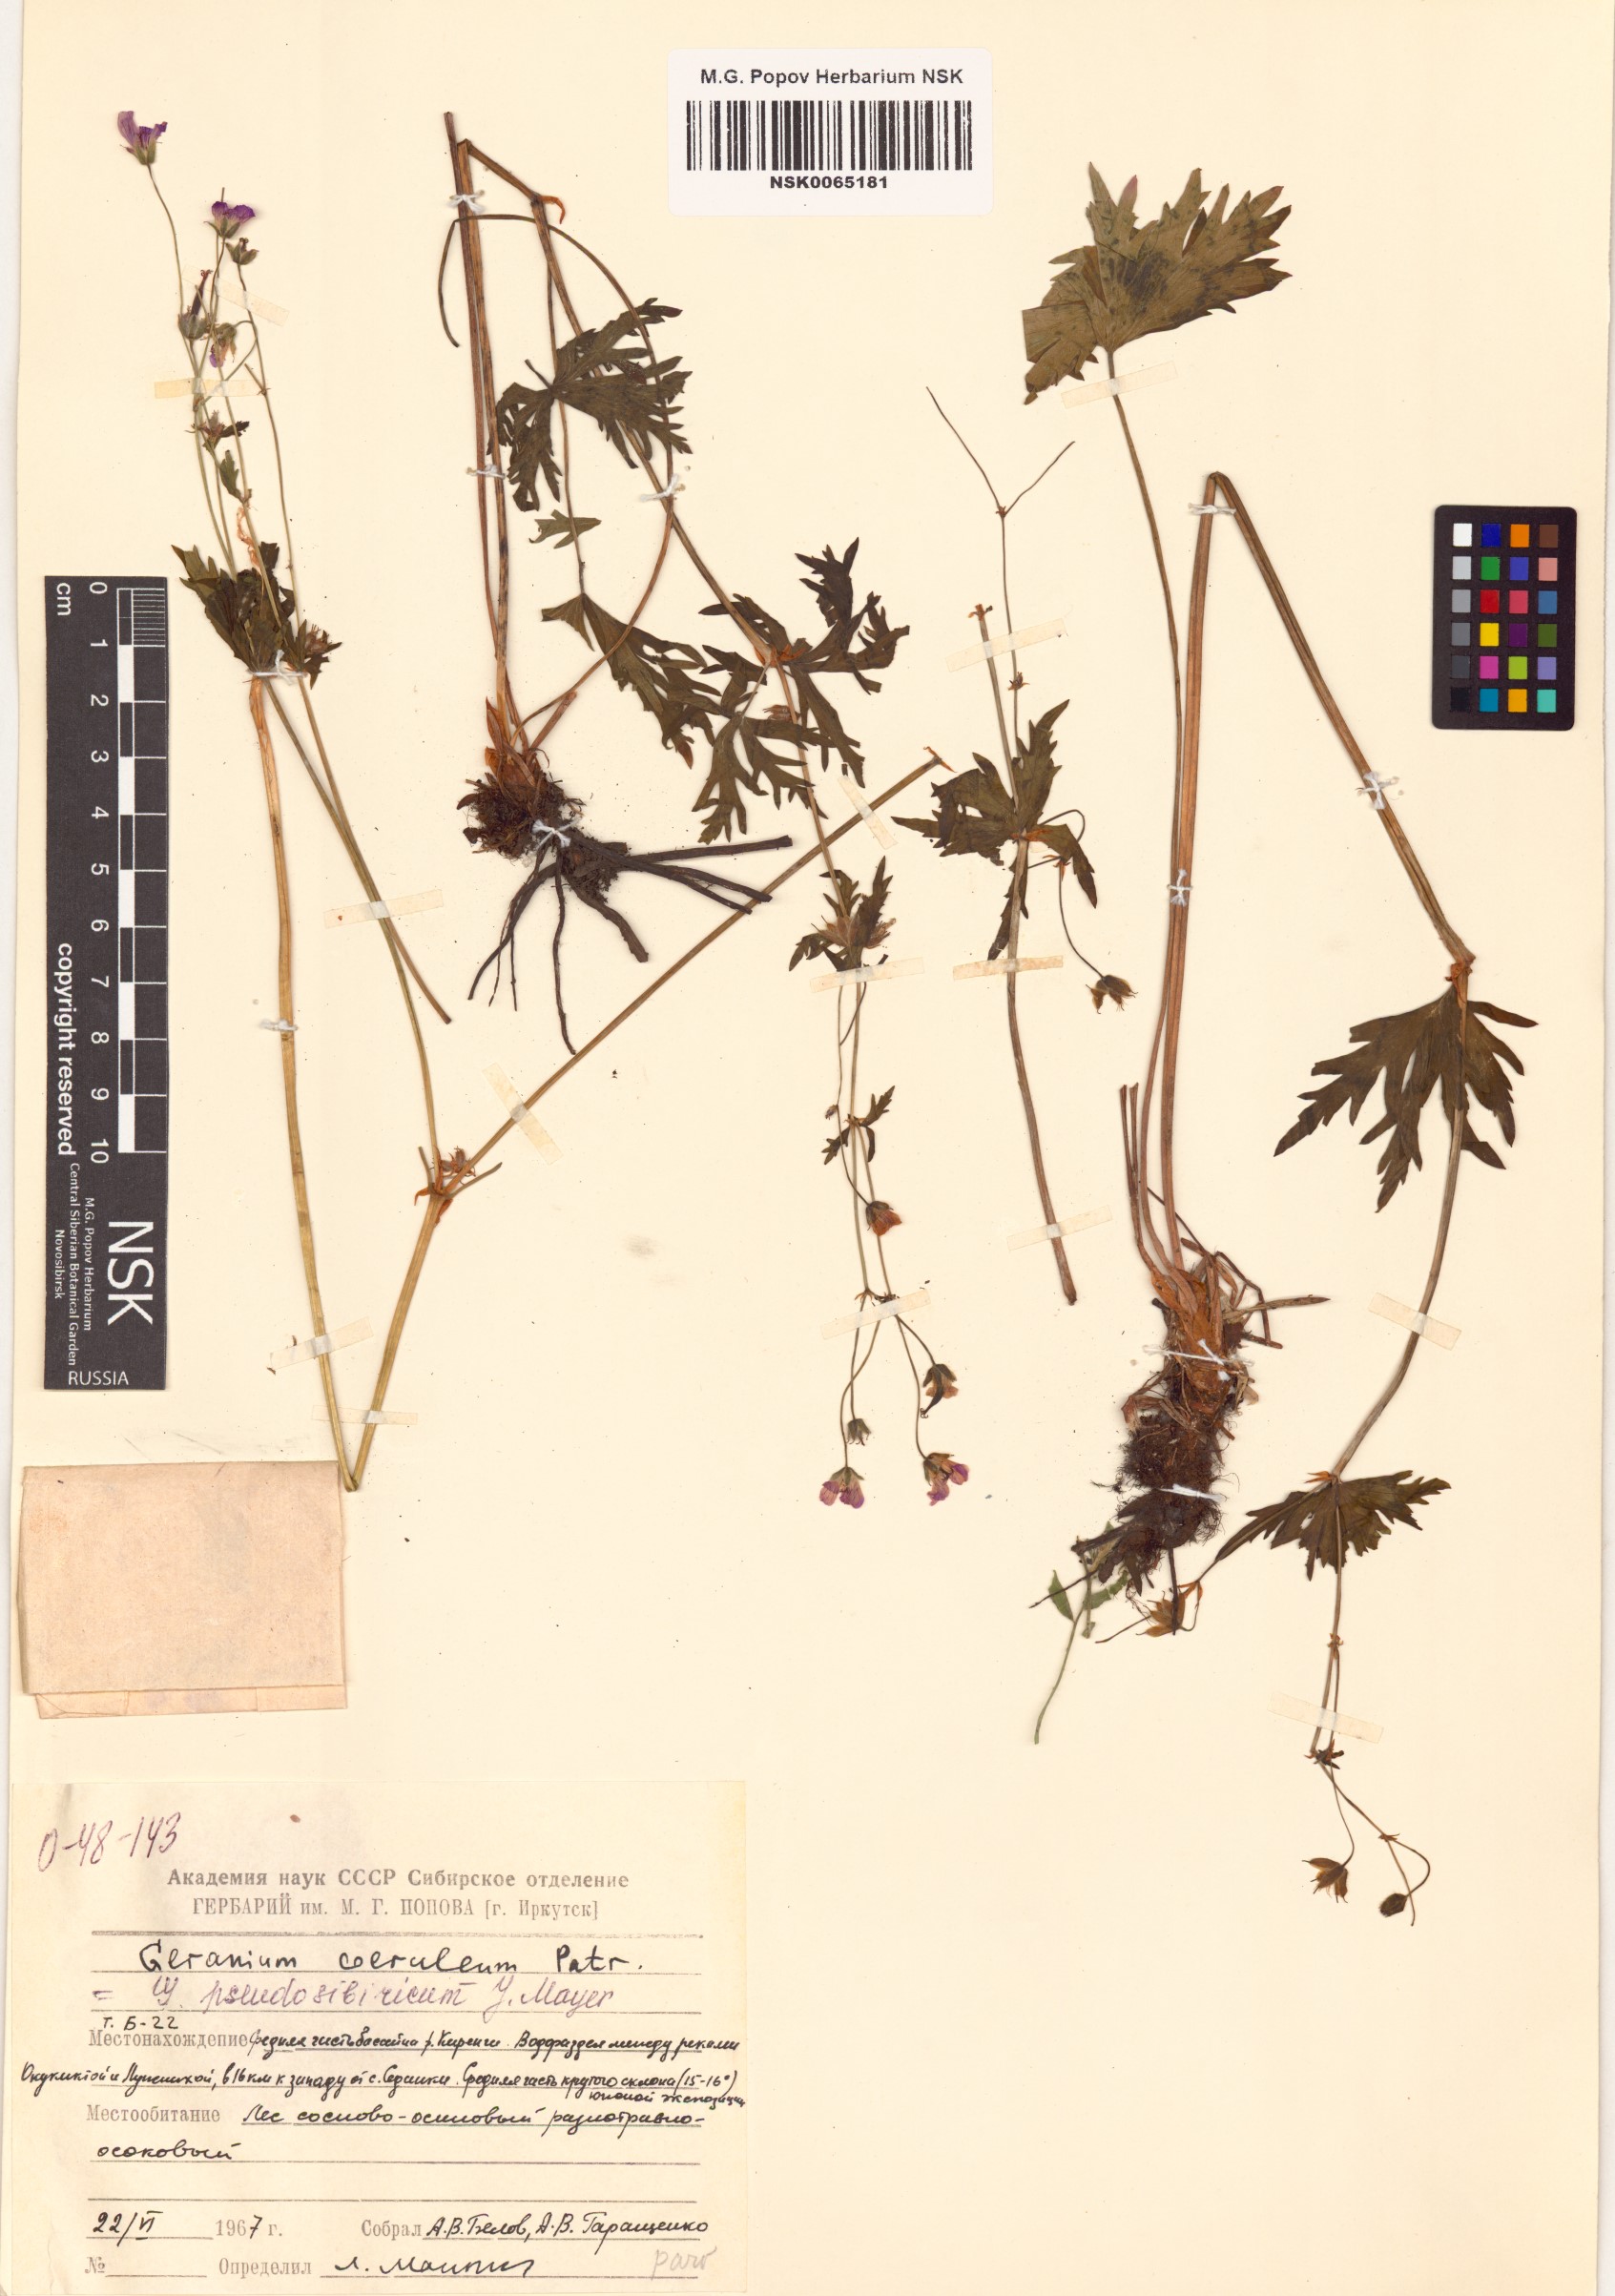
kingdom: Plantae
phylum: Tracheophyta
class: Magnoliopsida
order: Geraniales
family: Geraniaceae
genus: Geranium
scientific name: Geranium pseudosibiricum
